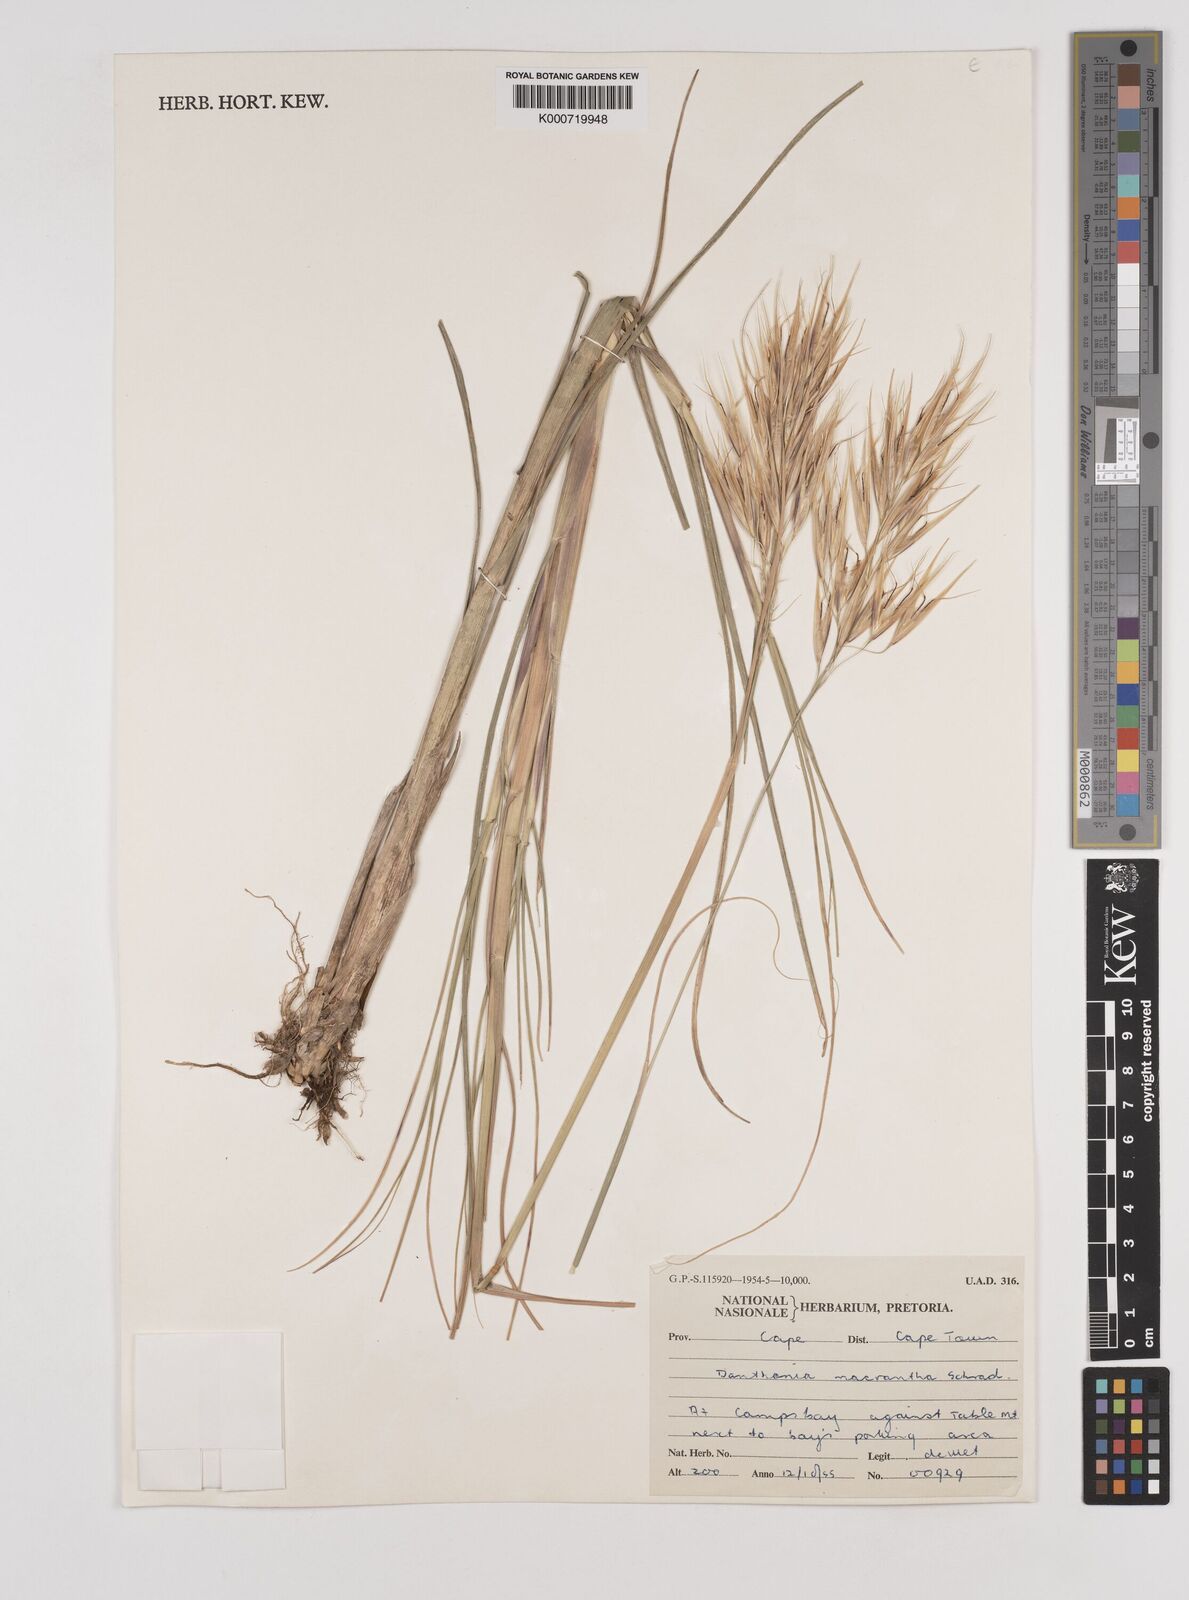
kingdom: Plantae
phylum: Tracheophyta
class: Liliopsida
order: Poales
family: Poaceae
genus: Pseudopentameris
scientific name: Pseudopentameris macrantha
